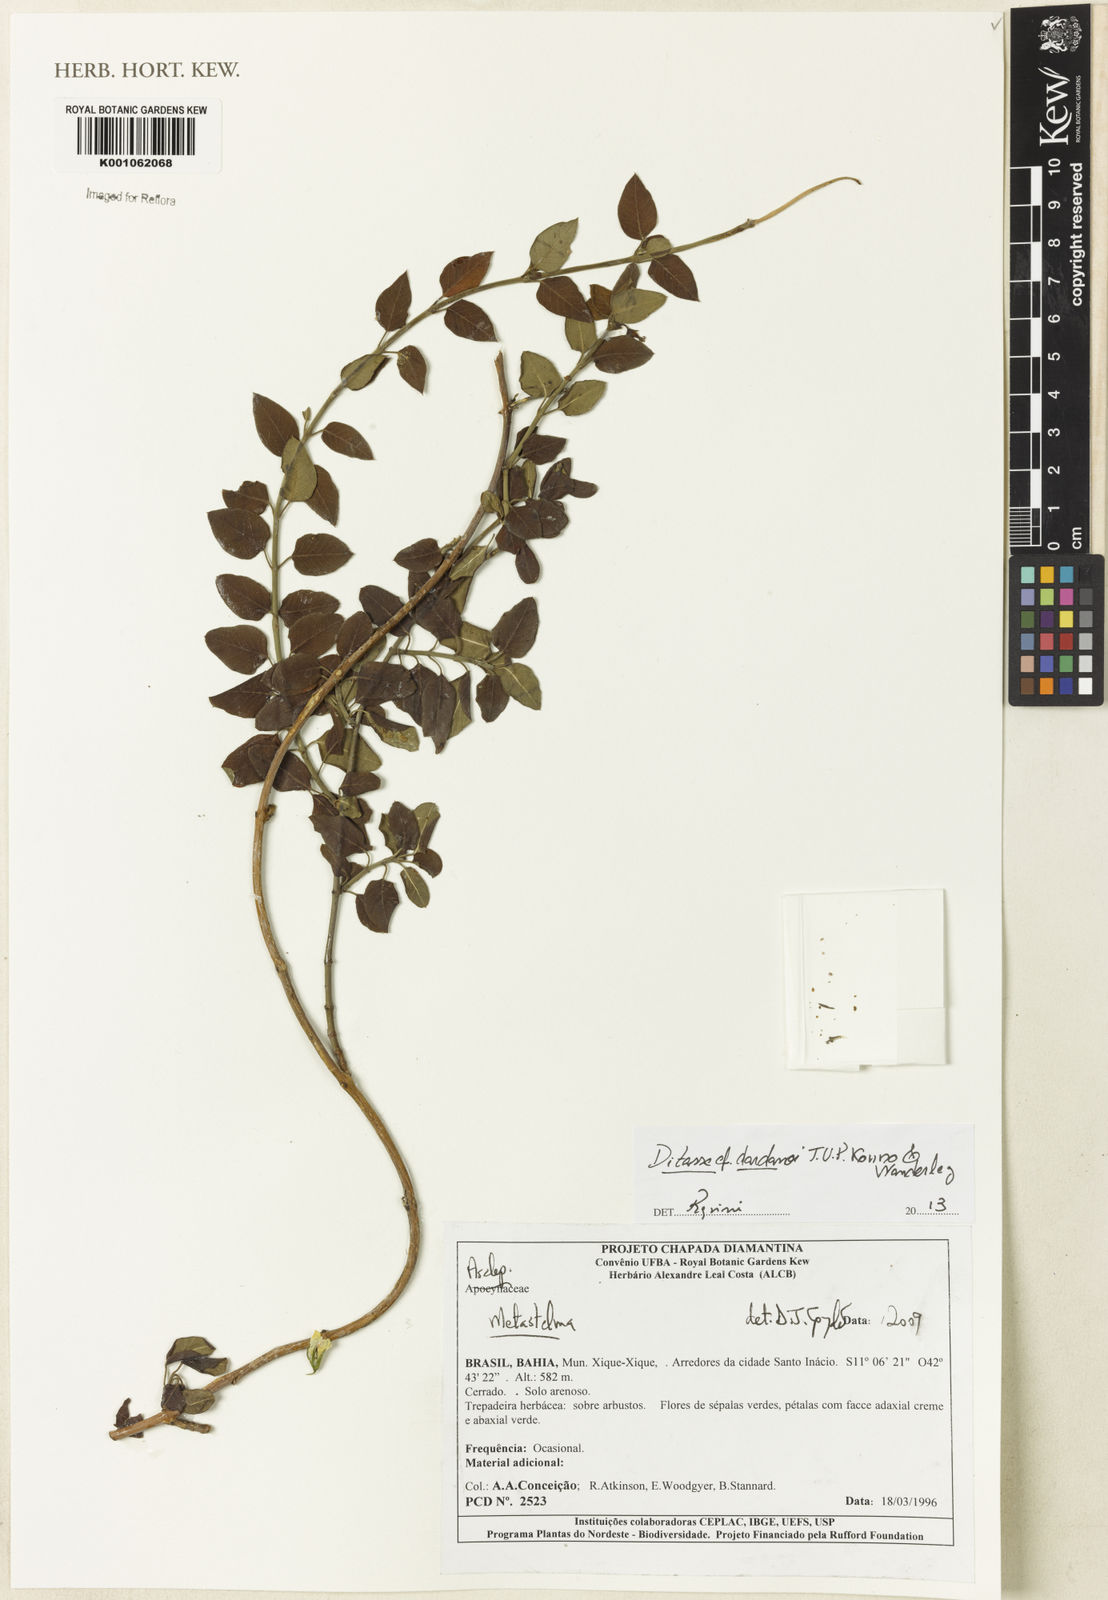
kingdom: Plantae
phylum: Tracheophyta
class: Magnoliopsida
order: Gentianales
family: Apocynaceae
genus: Ditassa
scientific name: Ditassa dardanoi
